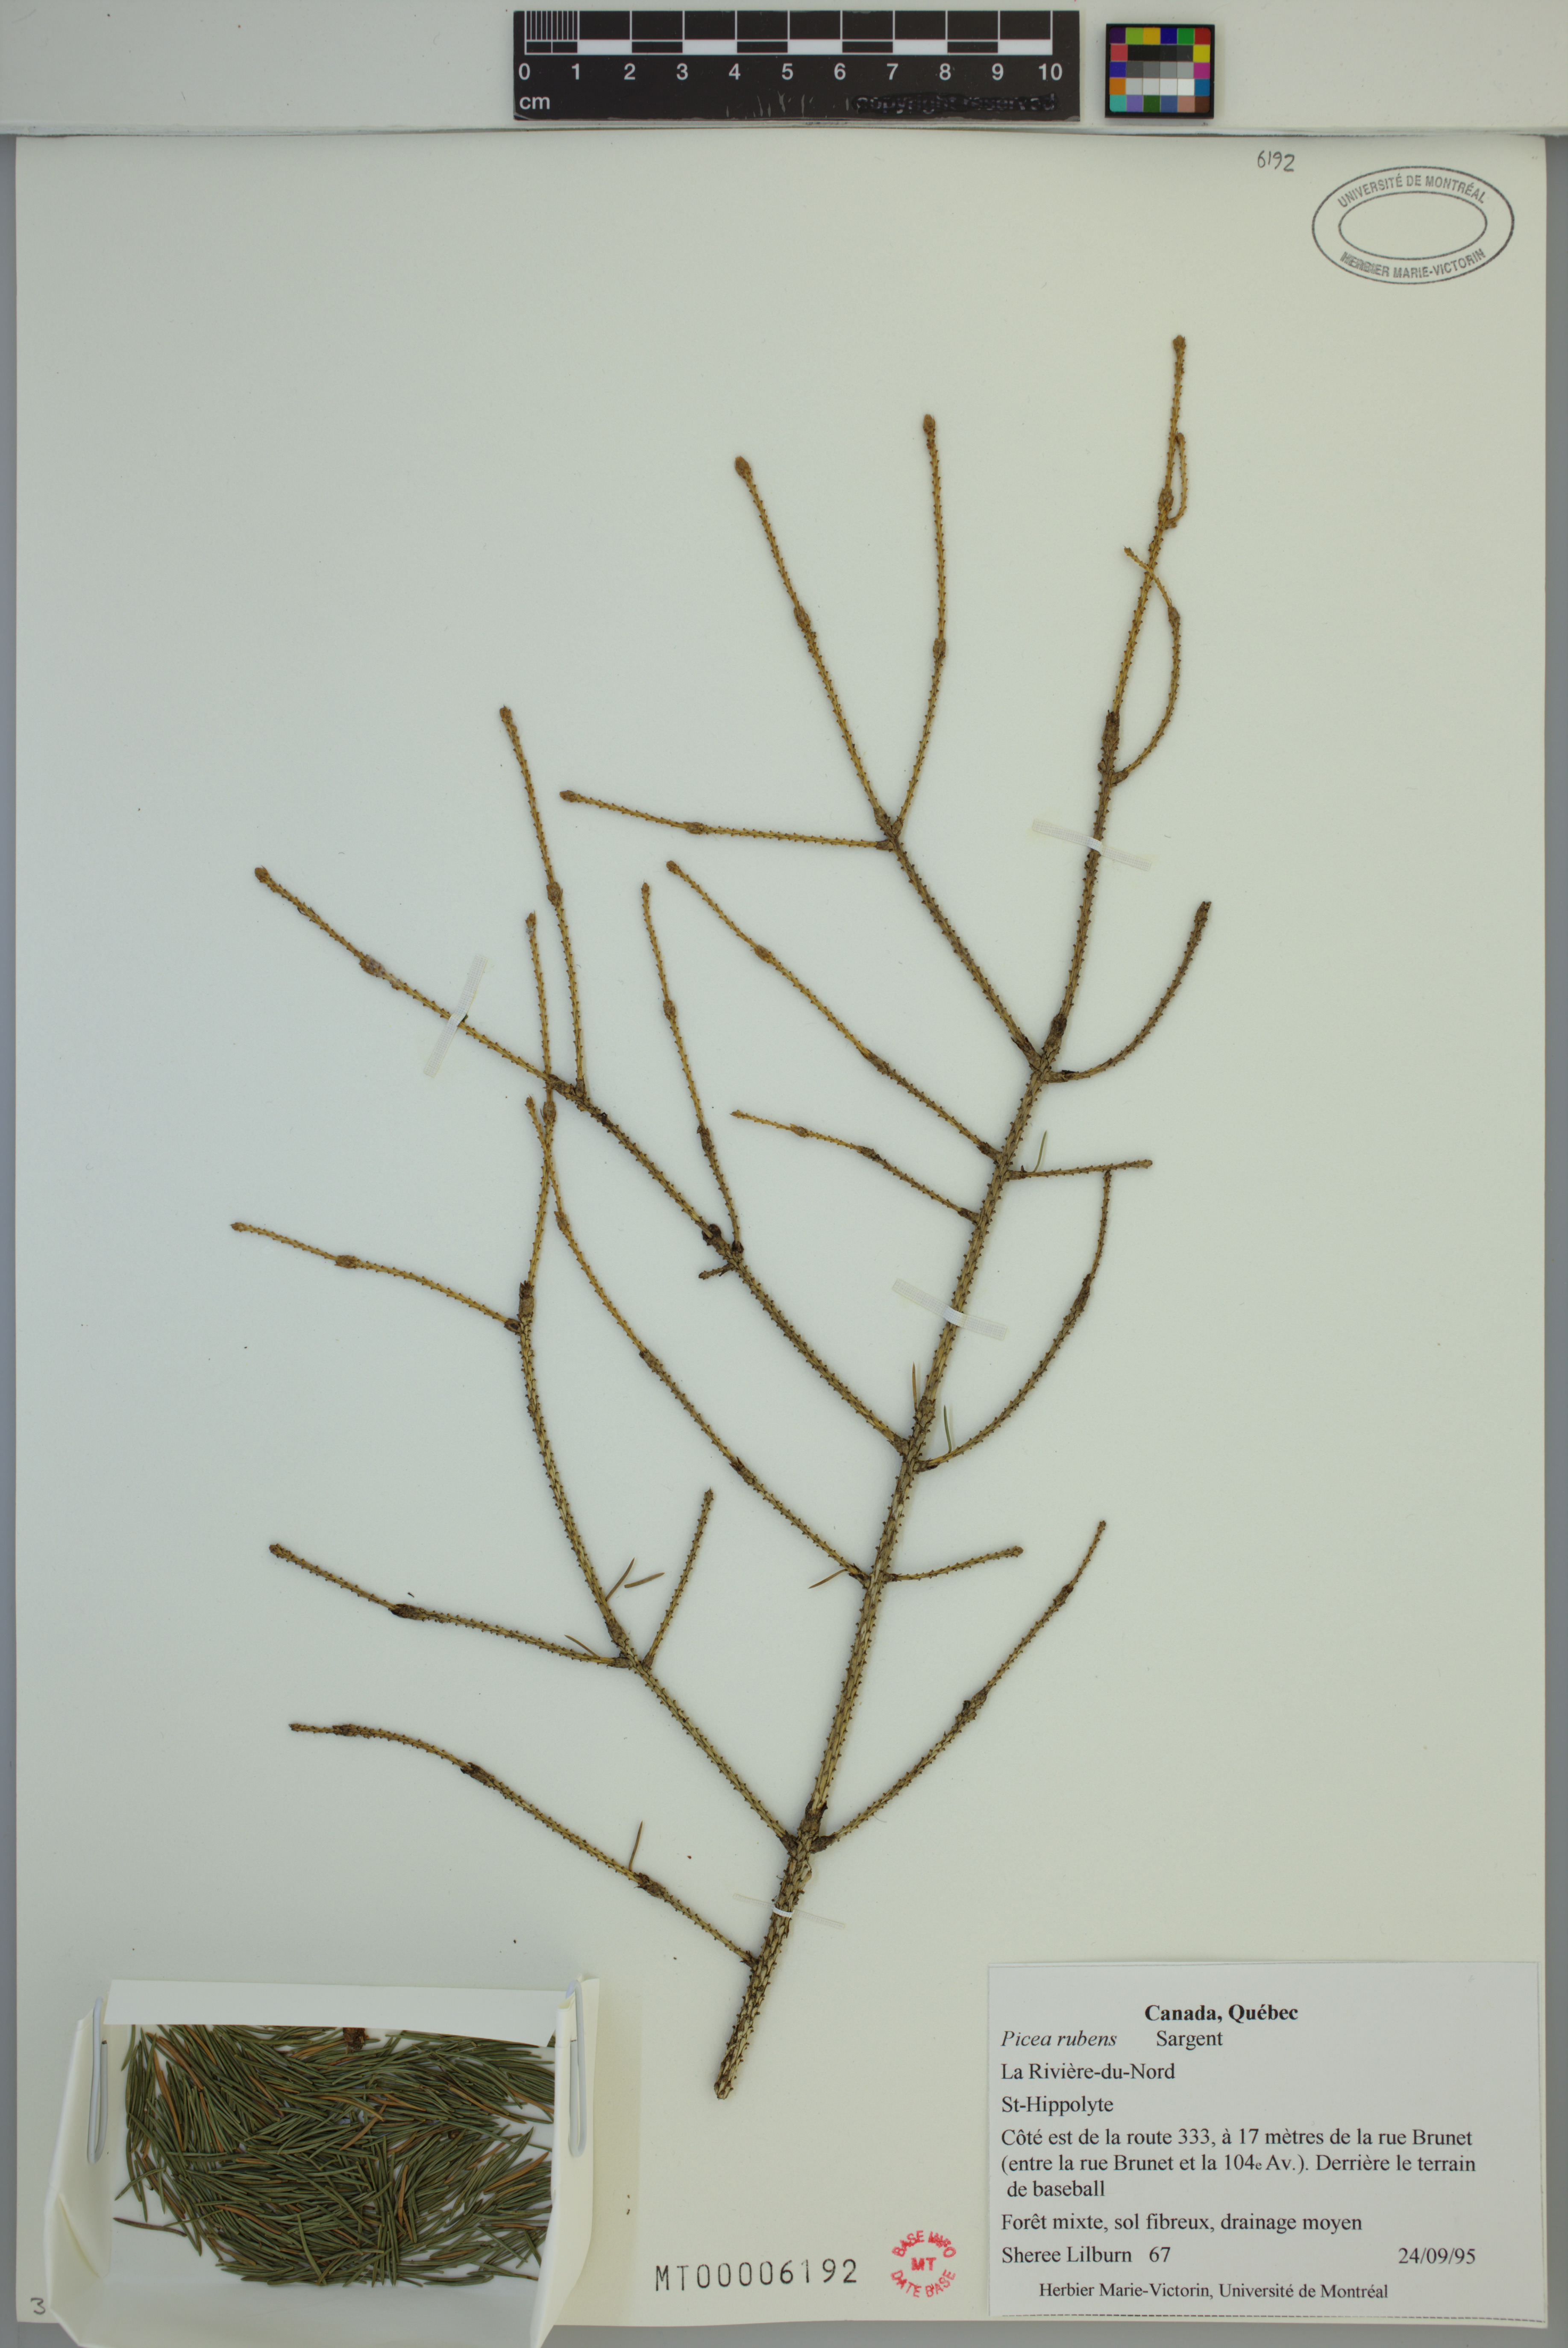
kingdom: Plantae
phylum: Tracheophyta
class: Pinopsida
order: Pinales
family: Pinaceae
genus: Picea
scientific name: Picea rubens
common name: Red spruce
